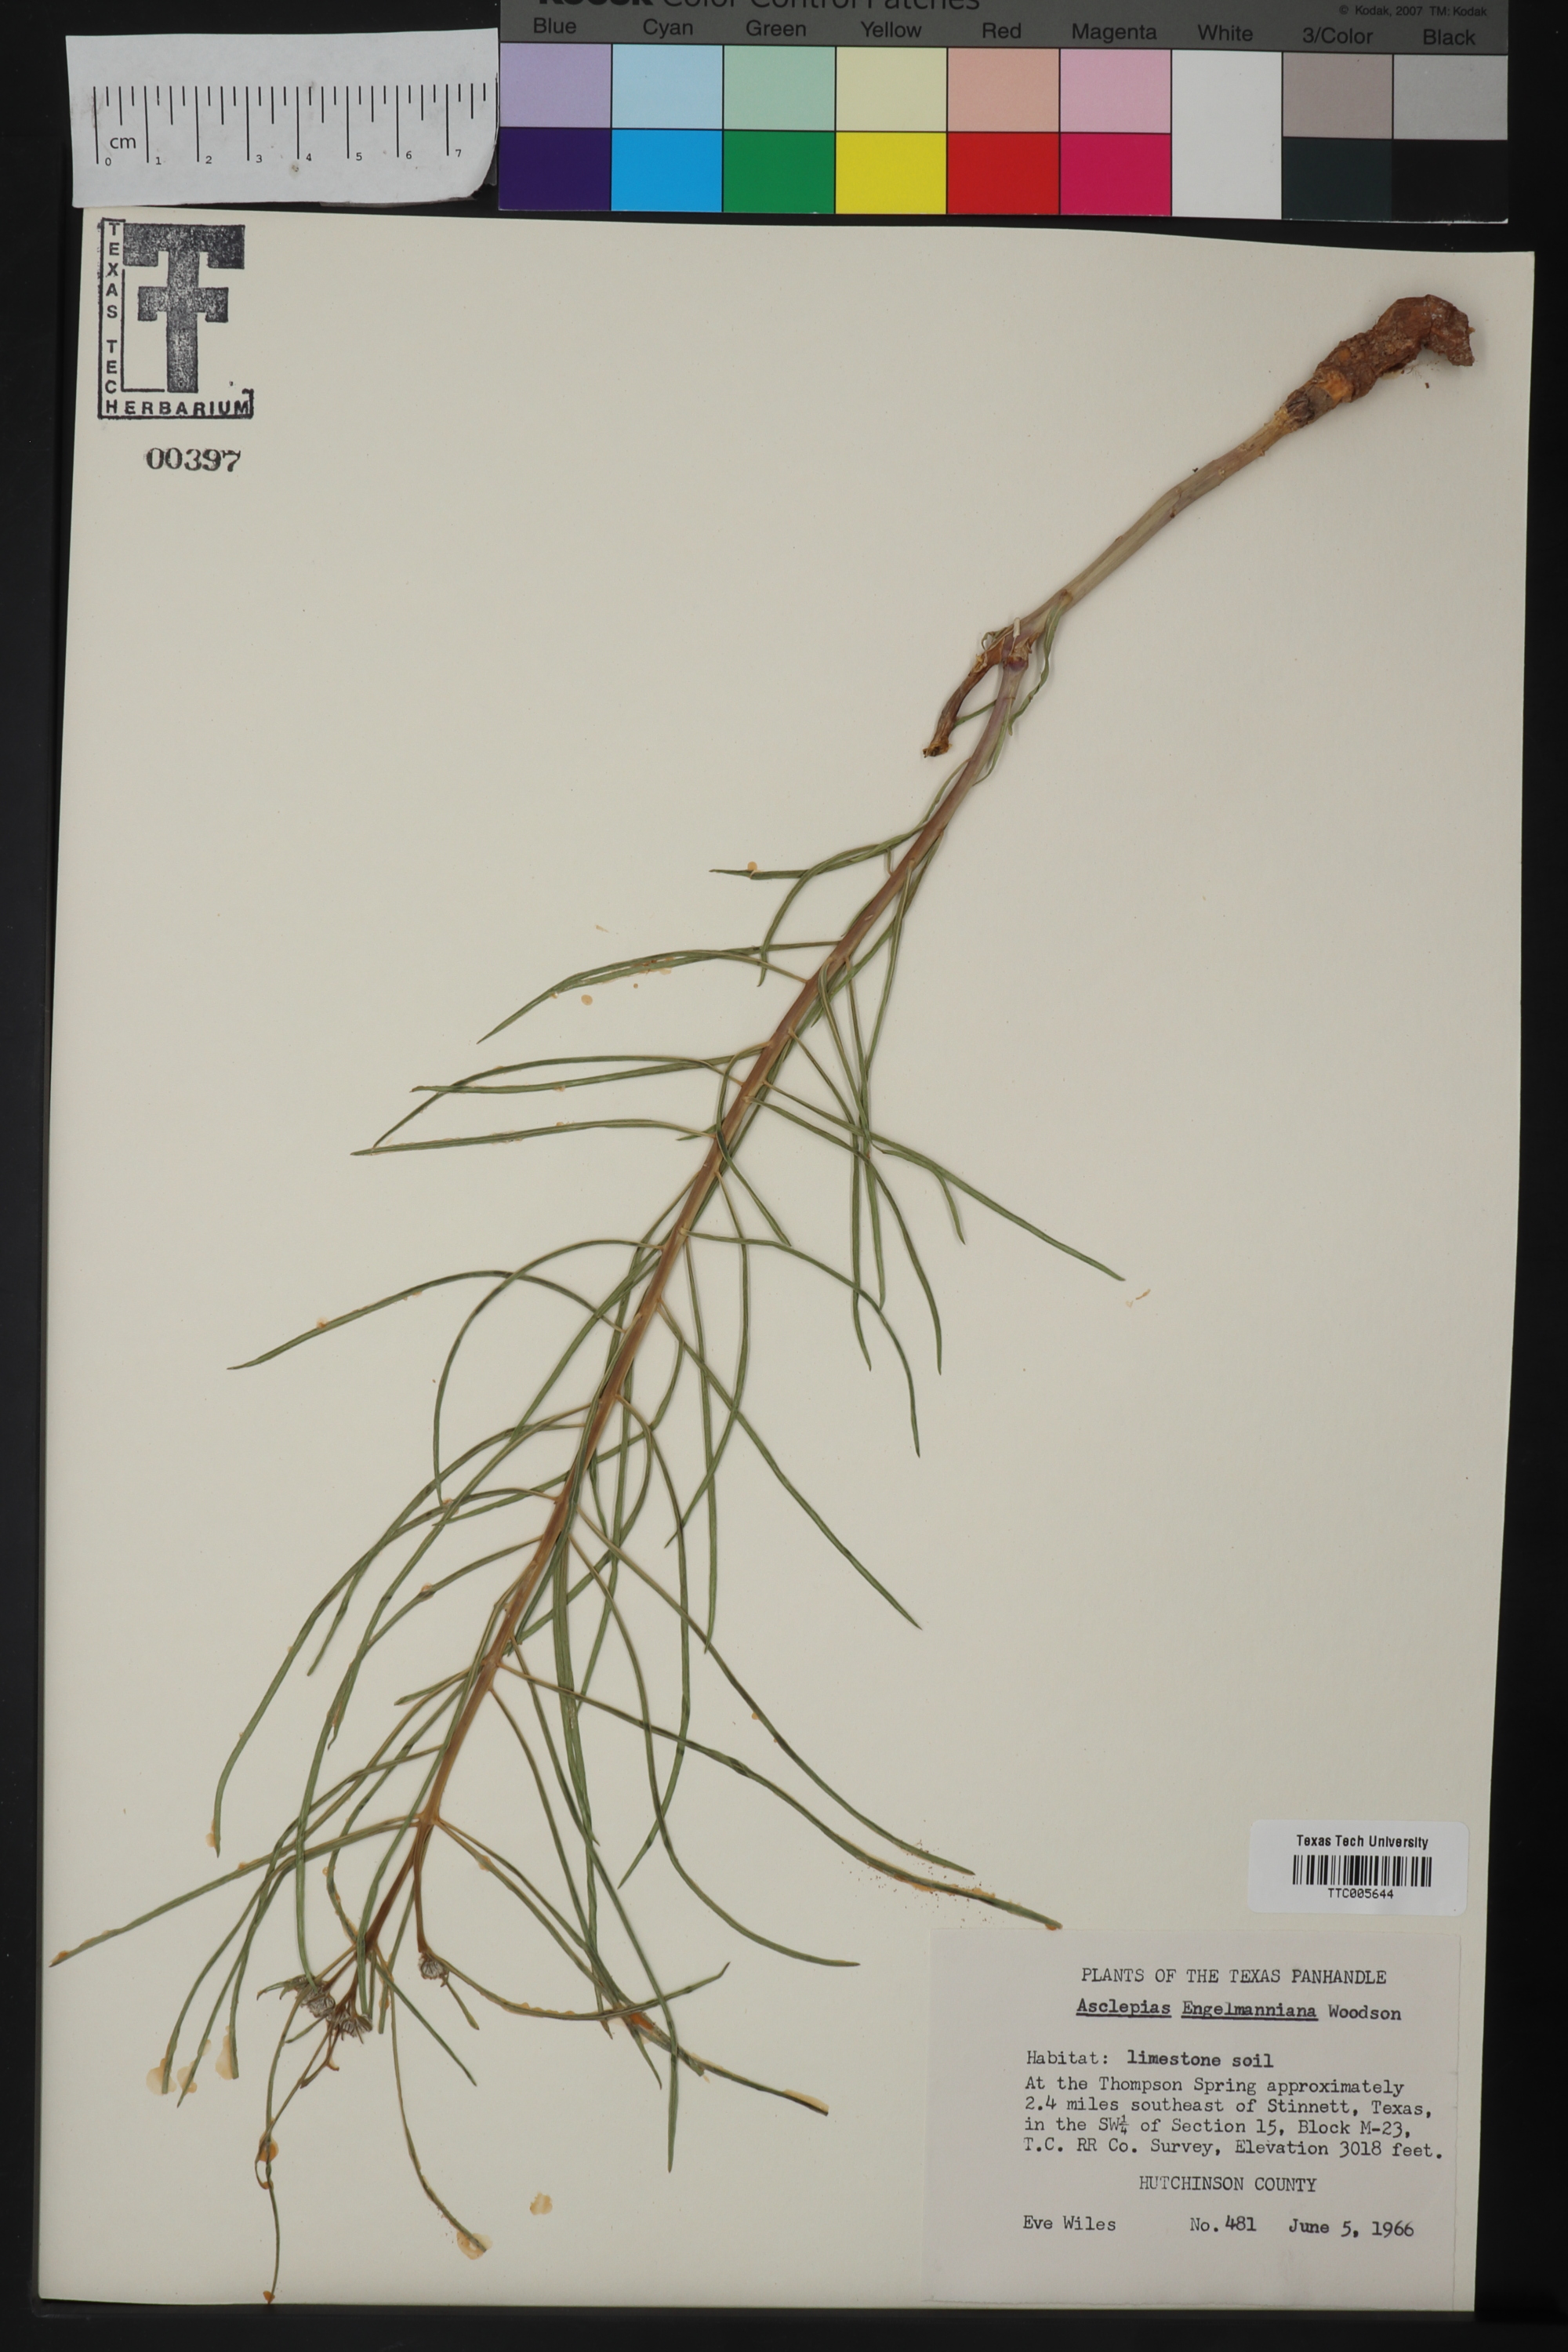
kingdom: Plantae
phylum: Tracheophyta
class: Magnoliopsida
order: Gentianales
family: Apocynaceae
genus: Asclepias
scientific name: Asclepias engelmanniana
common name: Engelmann's milkweed
